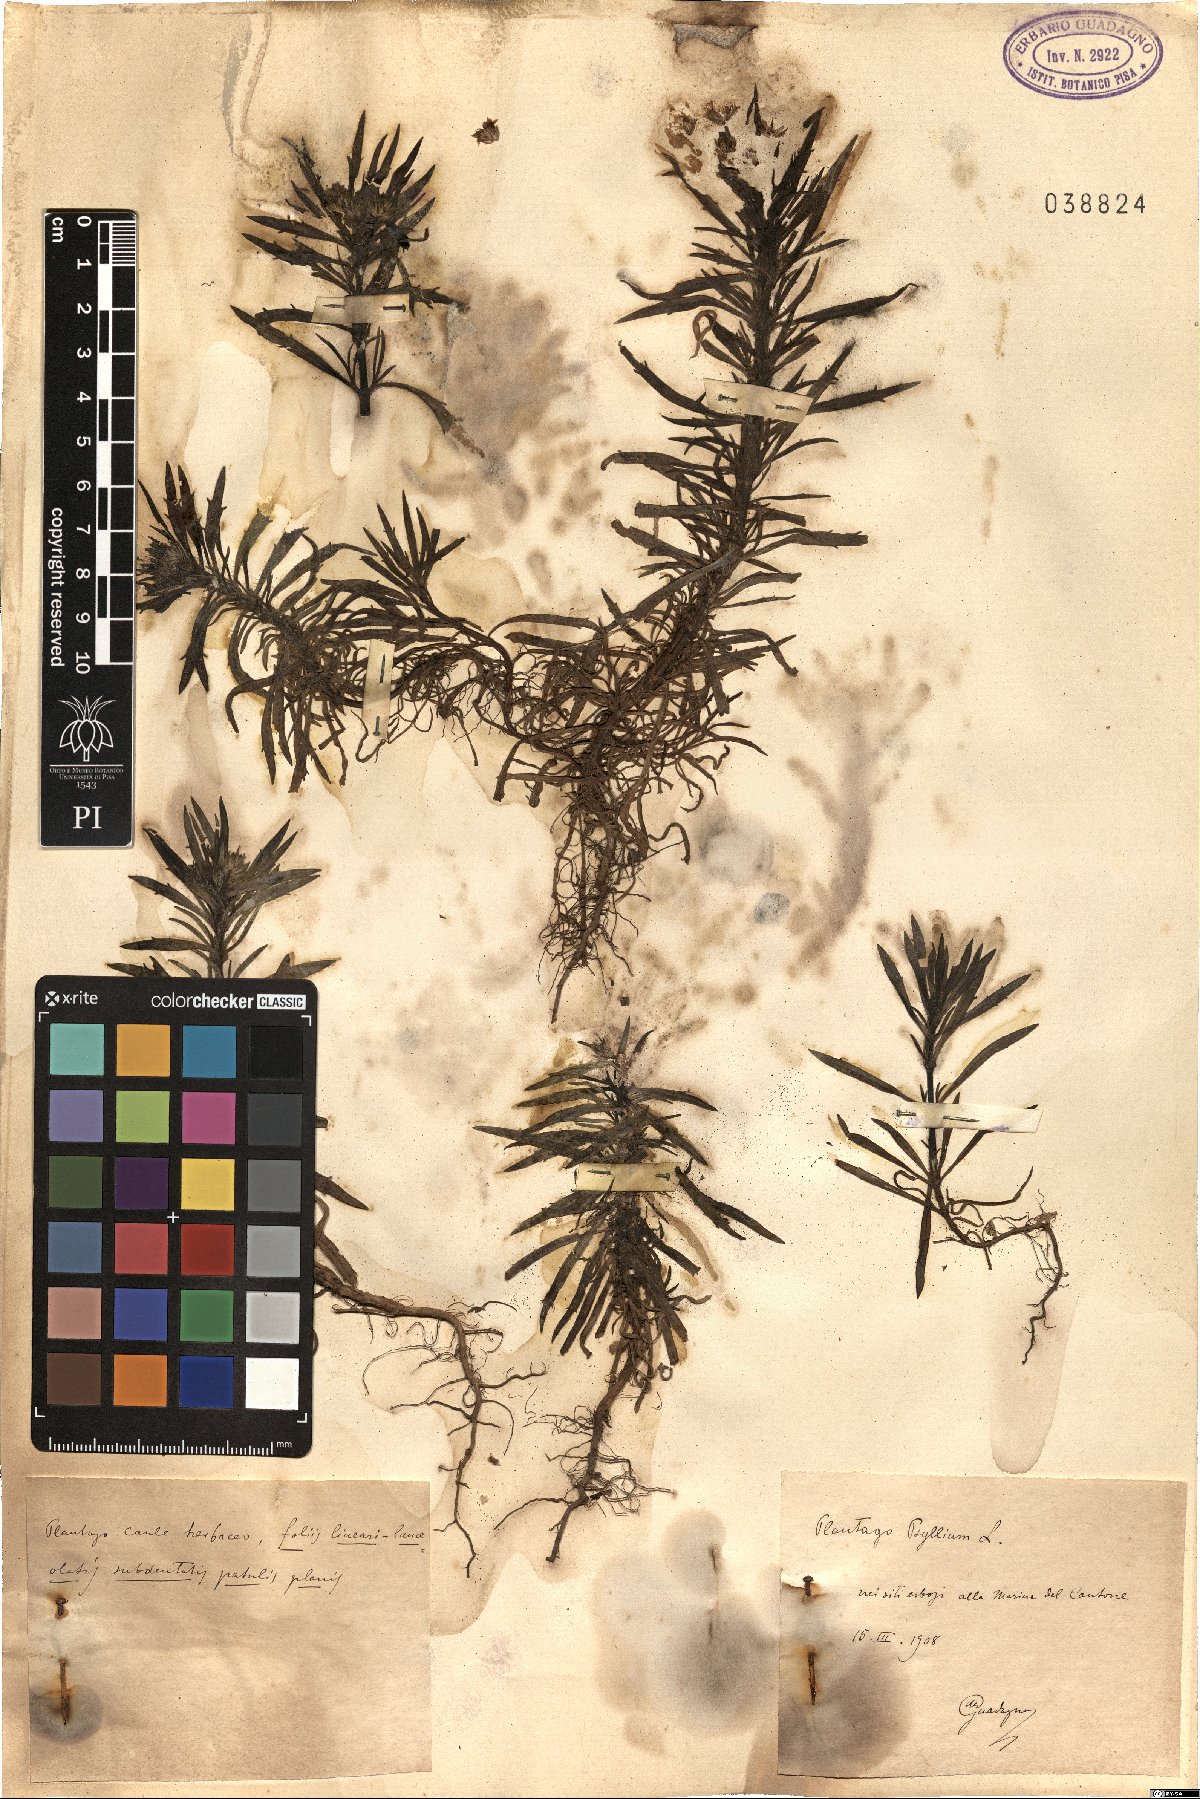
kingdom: Plantae
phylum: Tracheophyta
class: Magnoliopsida
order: Lamiales
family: Plantaginaceae
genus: Plantago
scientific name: Plantago
